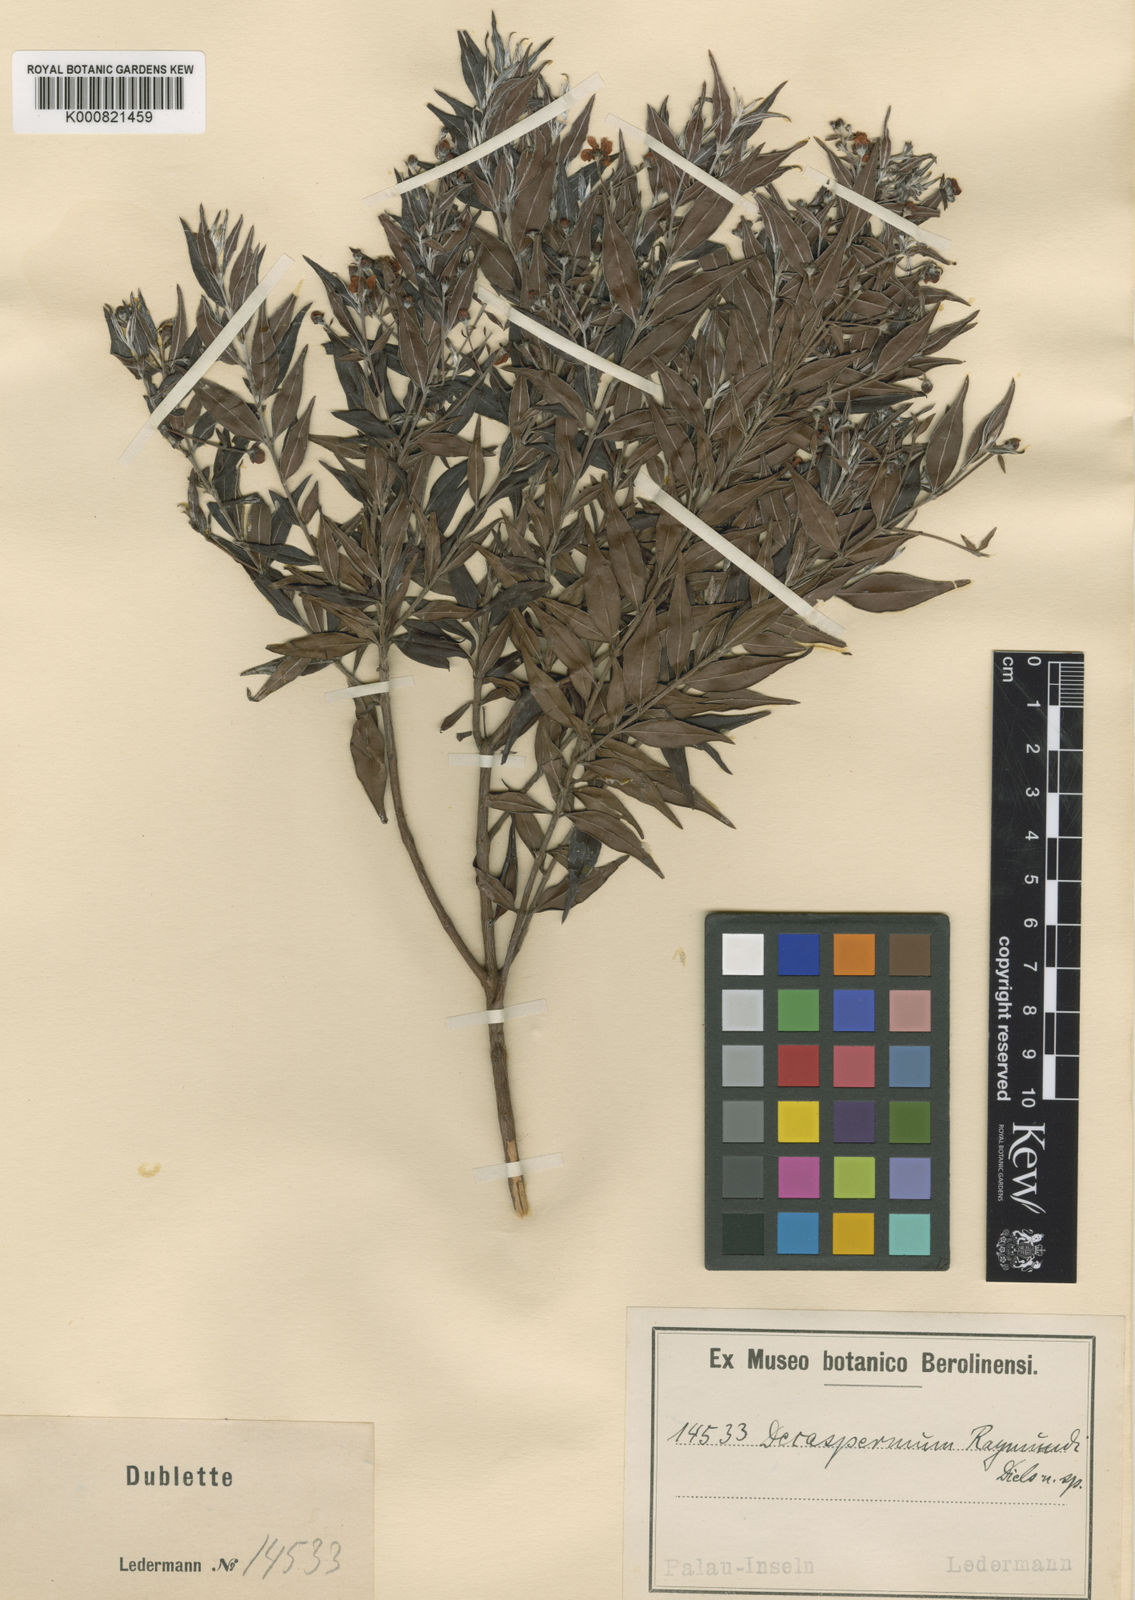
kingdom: Plantae
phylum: Tracheophyta
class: Magnoliopsida
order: Myrtales
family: Myrtaceae
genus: Decaspermum
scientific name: Decaspermum raymundi
